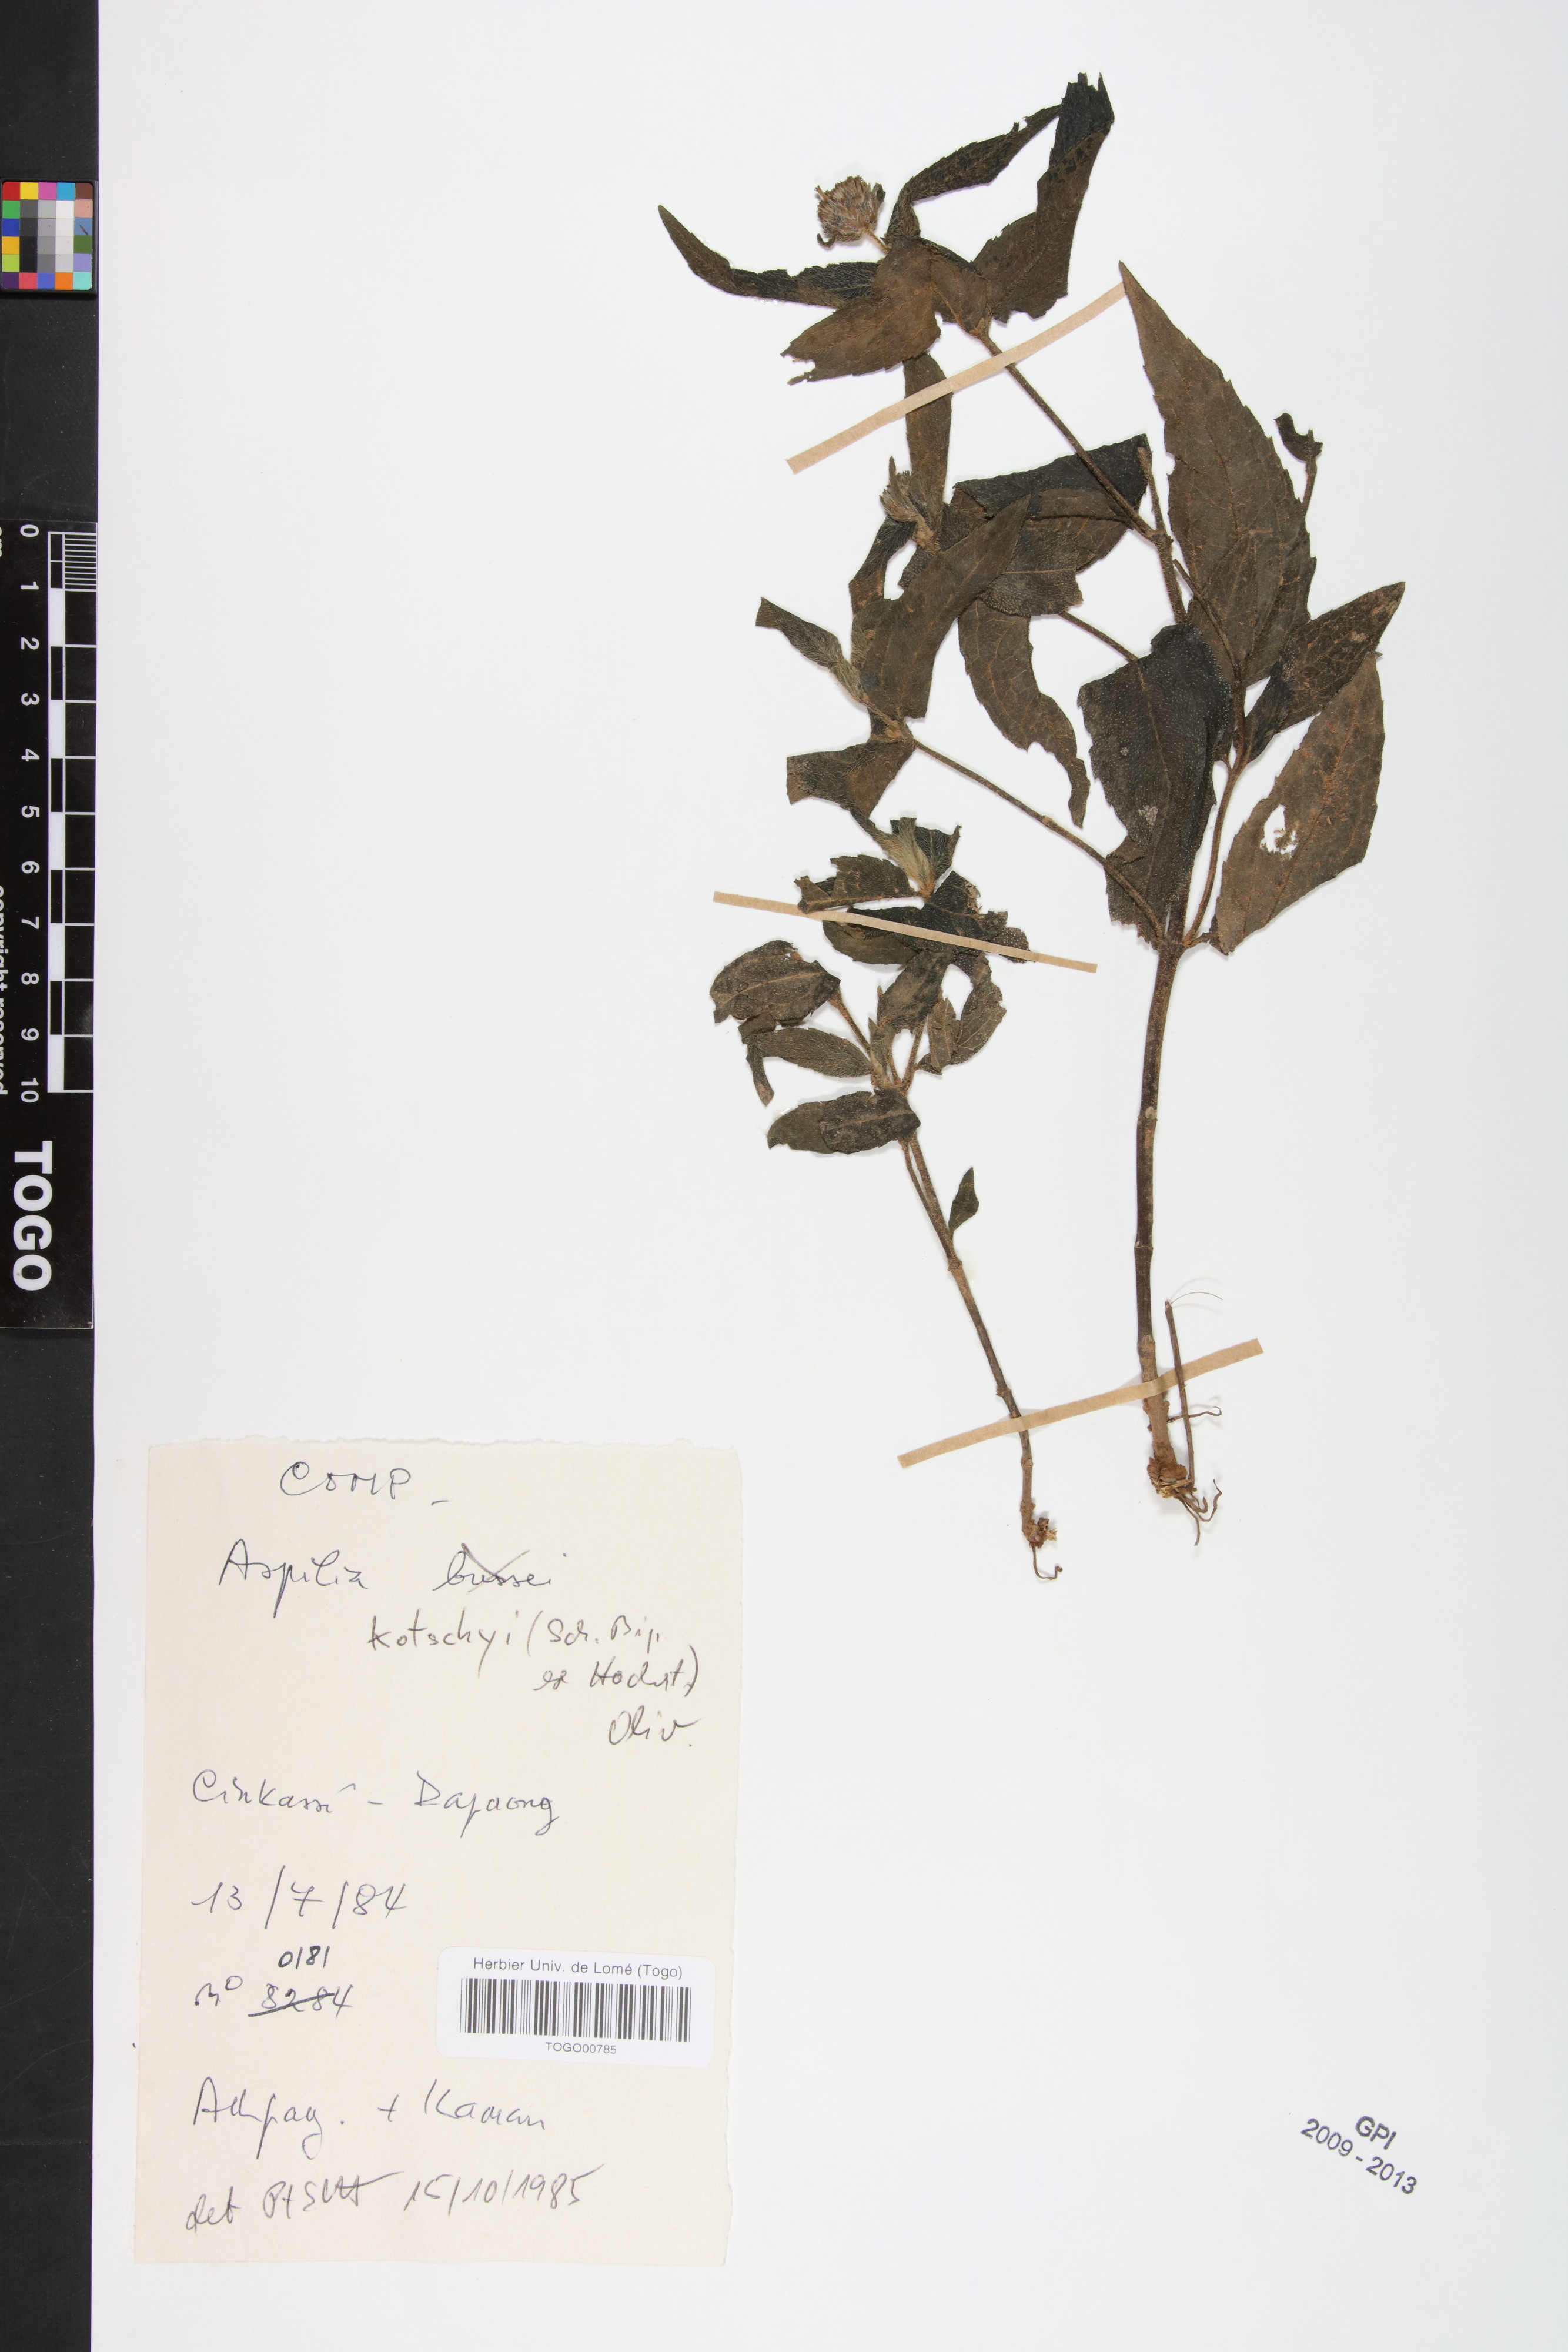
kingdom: Plantae
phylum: Tracheophyta
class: Magnoliopsida
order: Asterales
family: Asteraceae
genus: Aspilia
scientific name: Aspilia kotschyi
